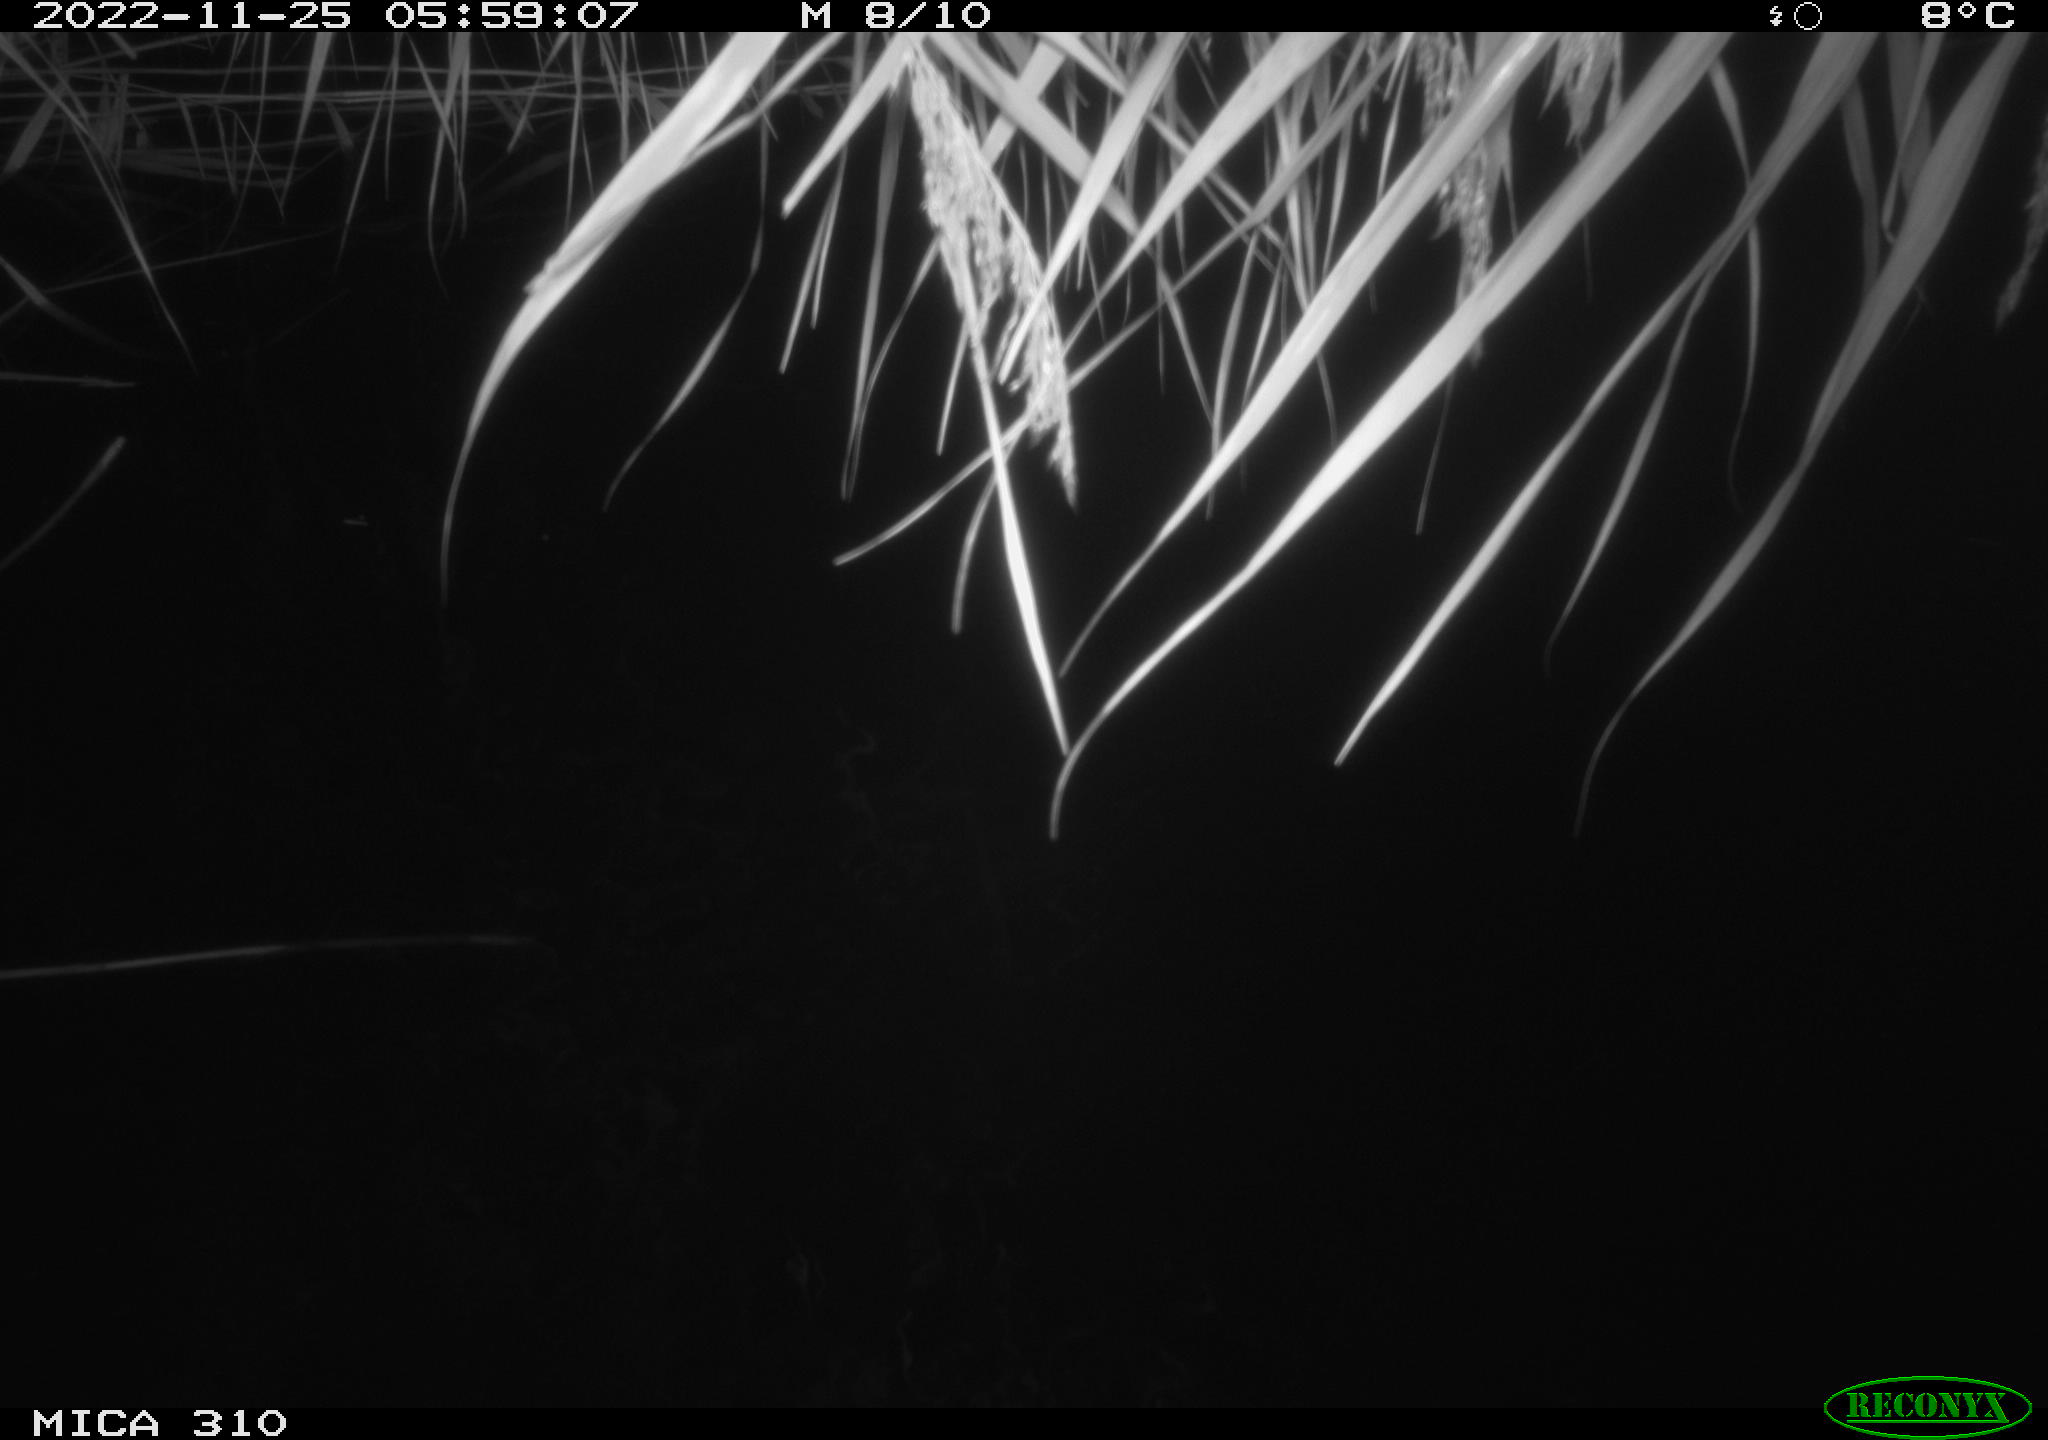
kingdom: Animalia
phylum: Chordata
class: Mammalia
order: Rodentia
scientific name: Rodentia
